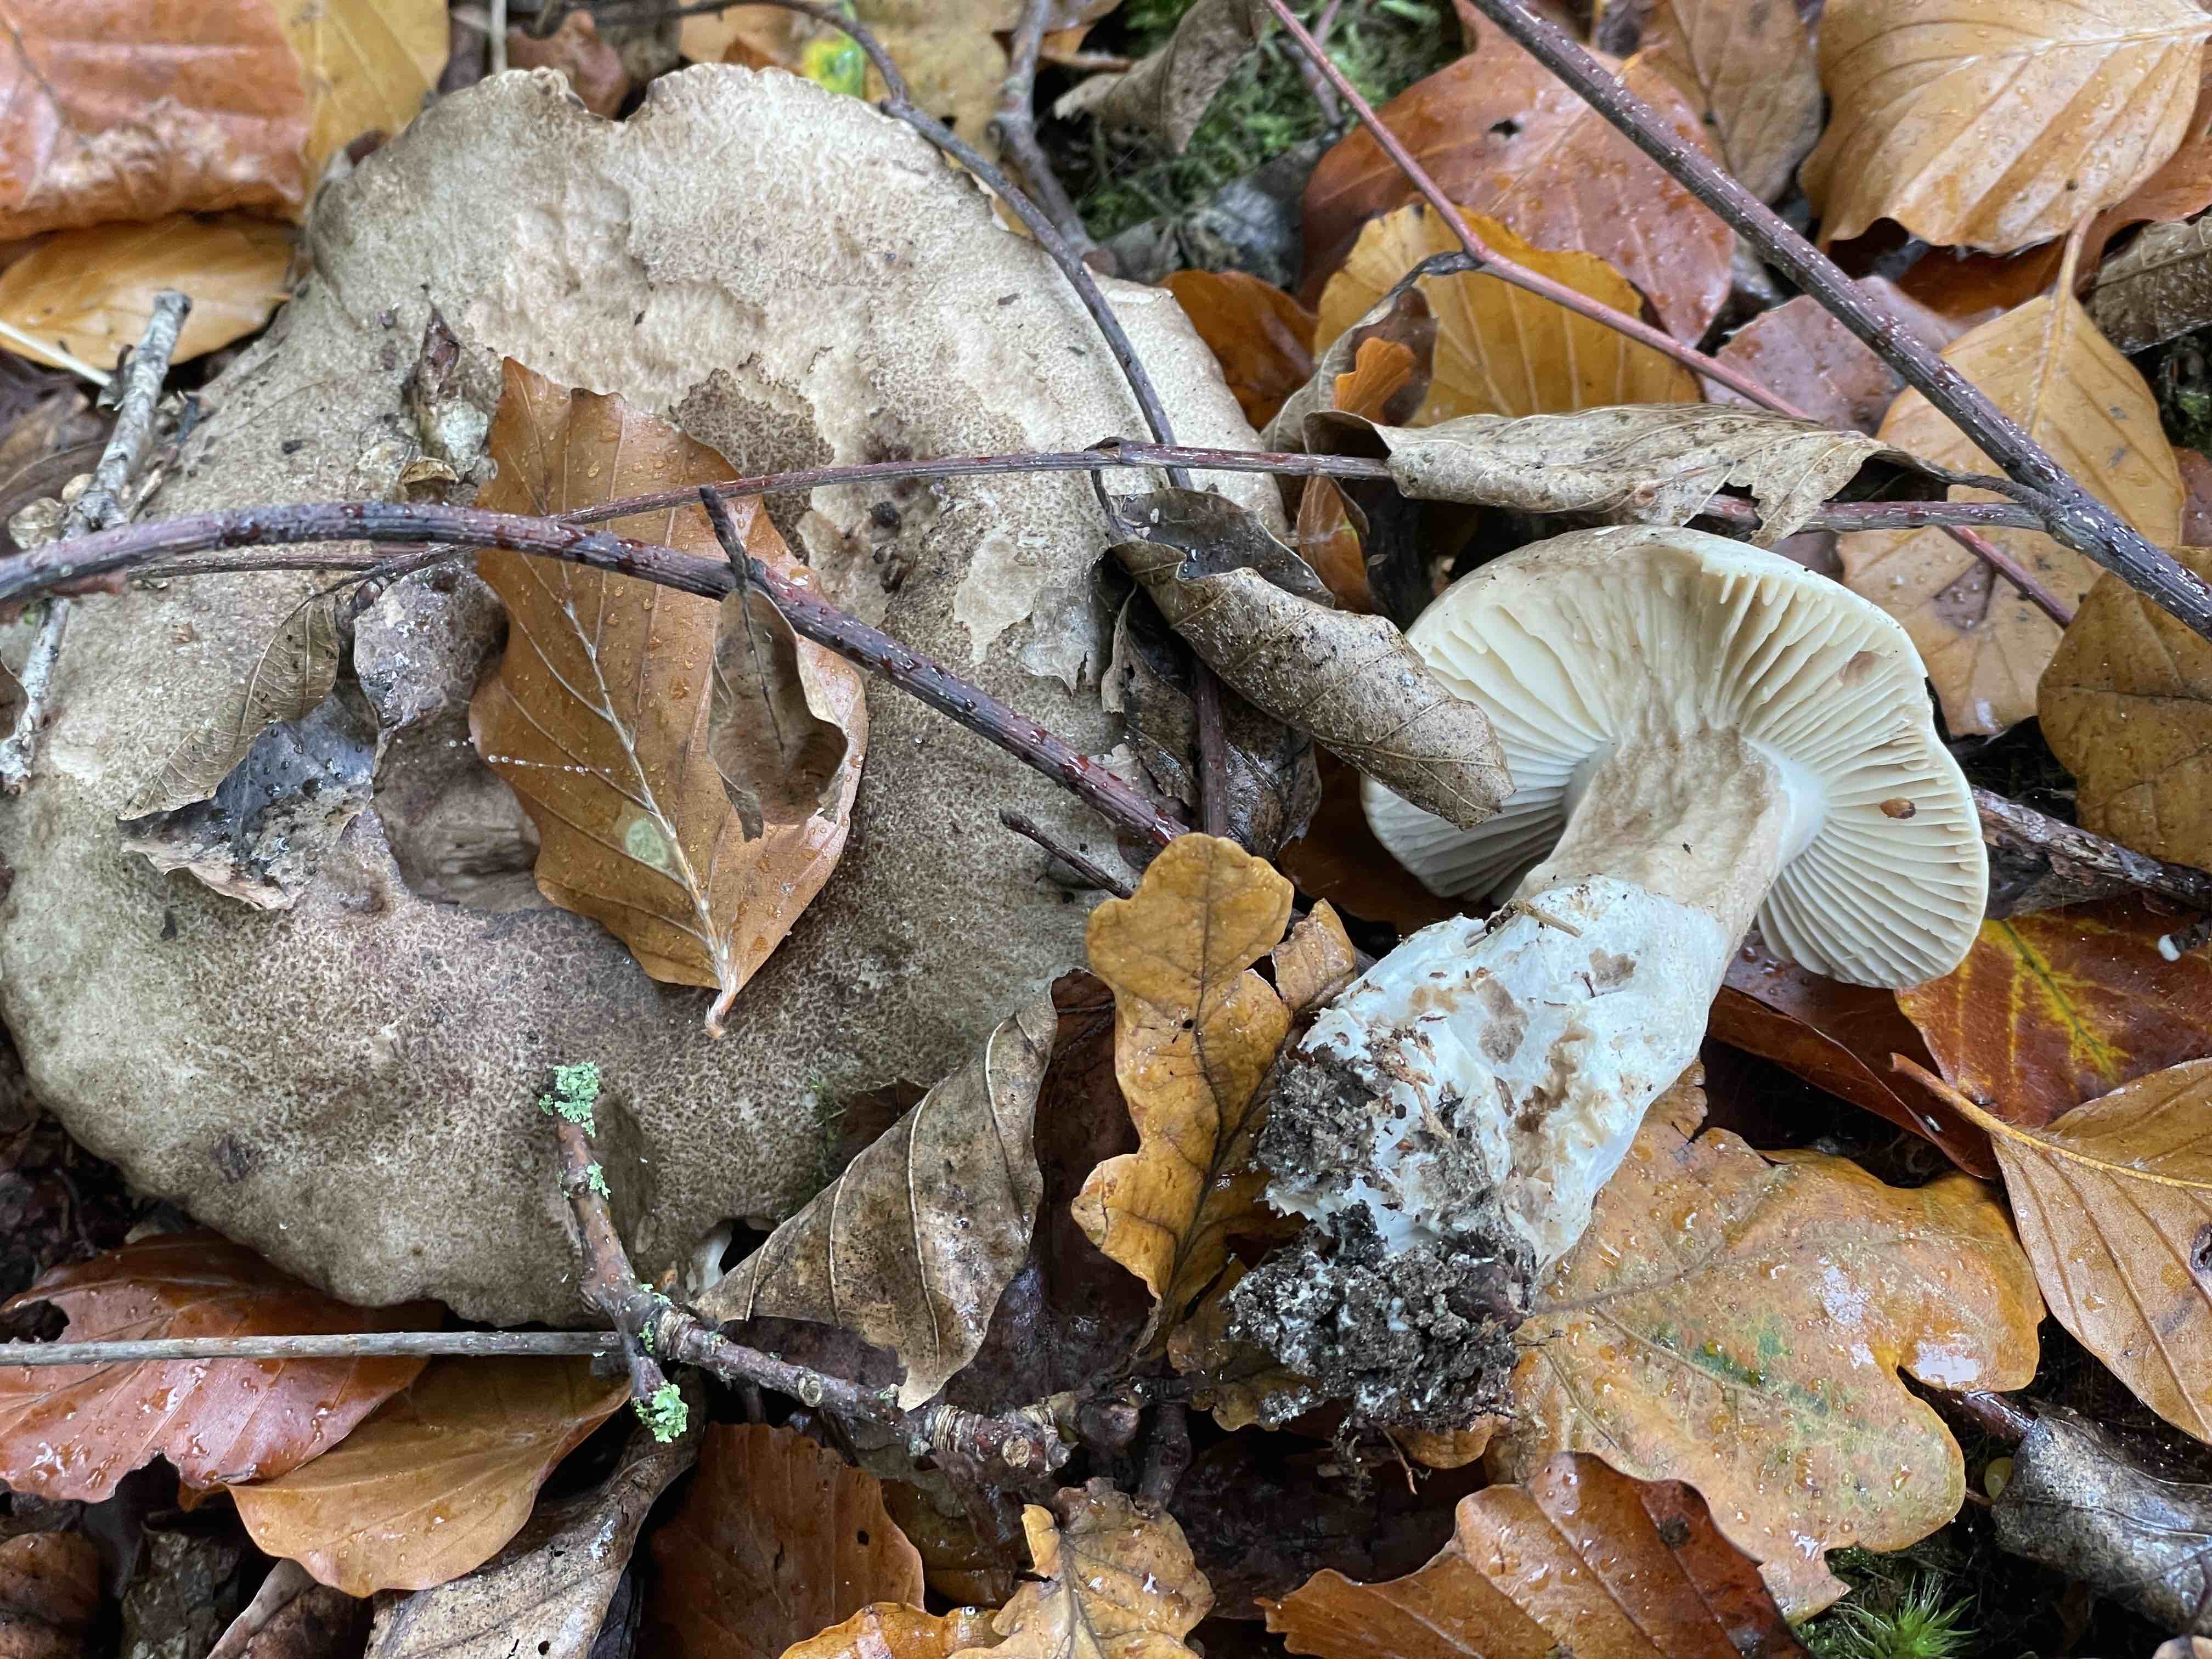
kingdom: Fungi
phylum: Basidiomycota
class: Agaricomycetes
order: Russulales
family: Russulaceae
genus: Russula
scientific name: Russula adusta
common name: sværtende skørhat
